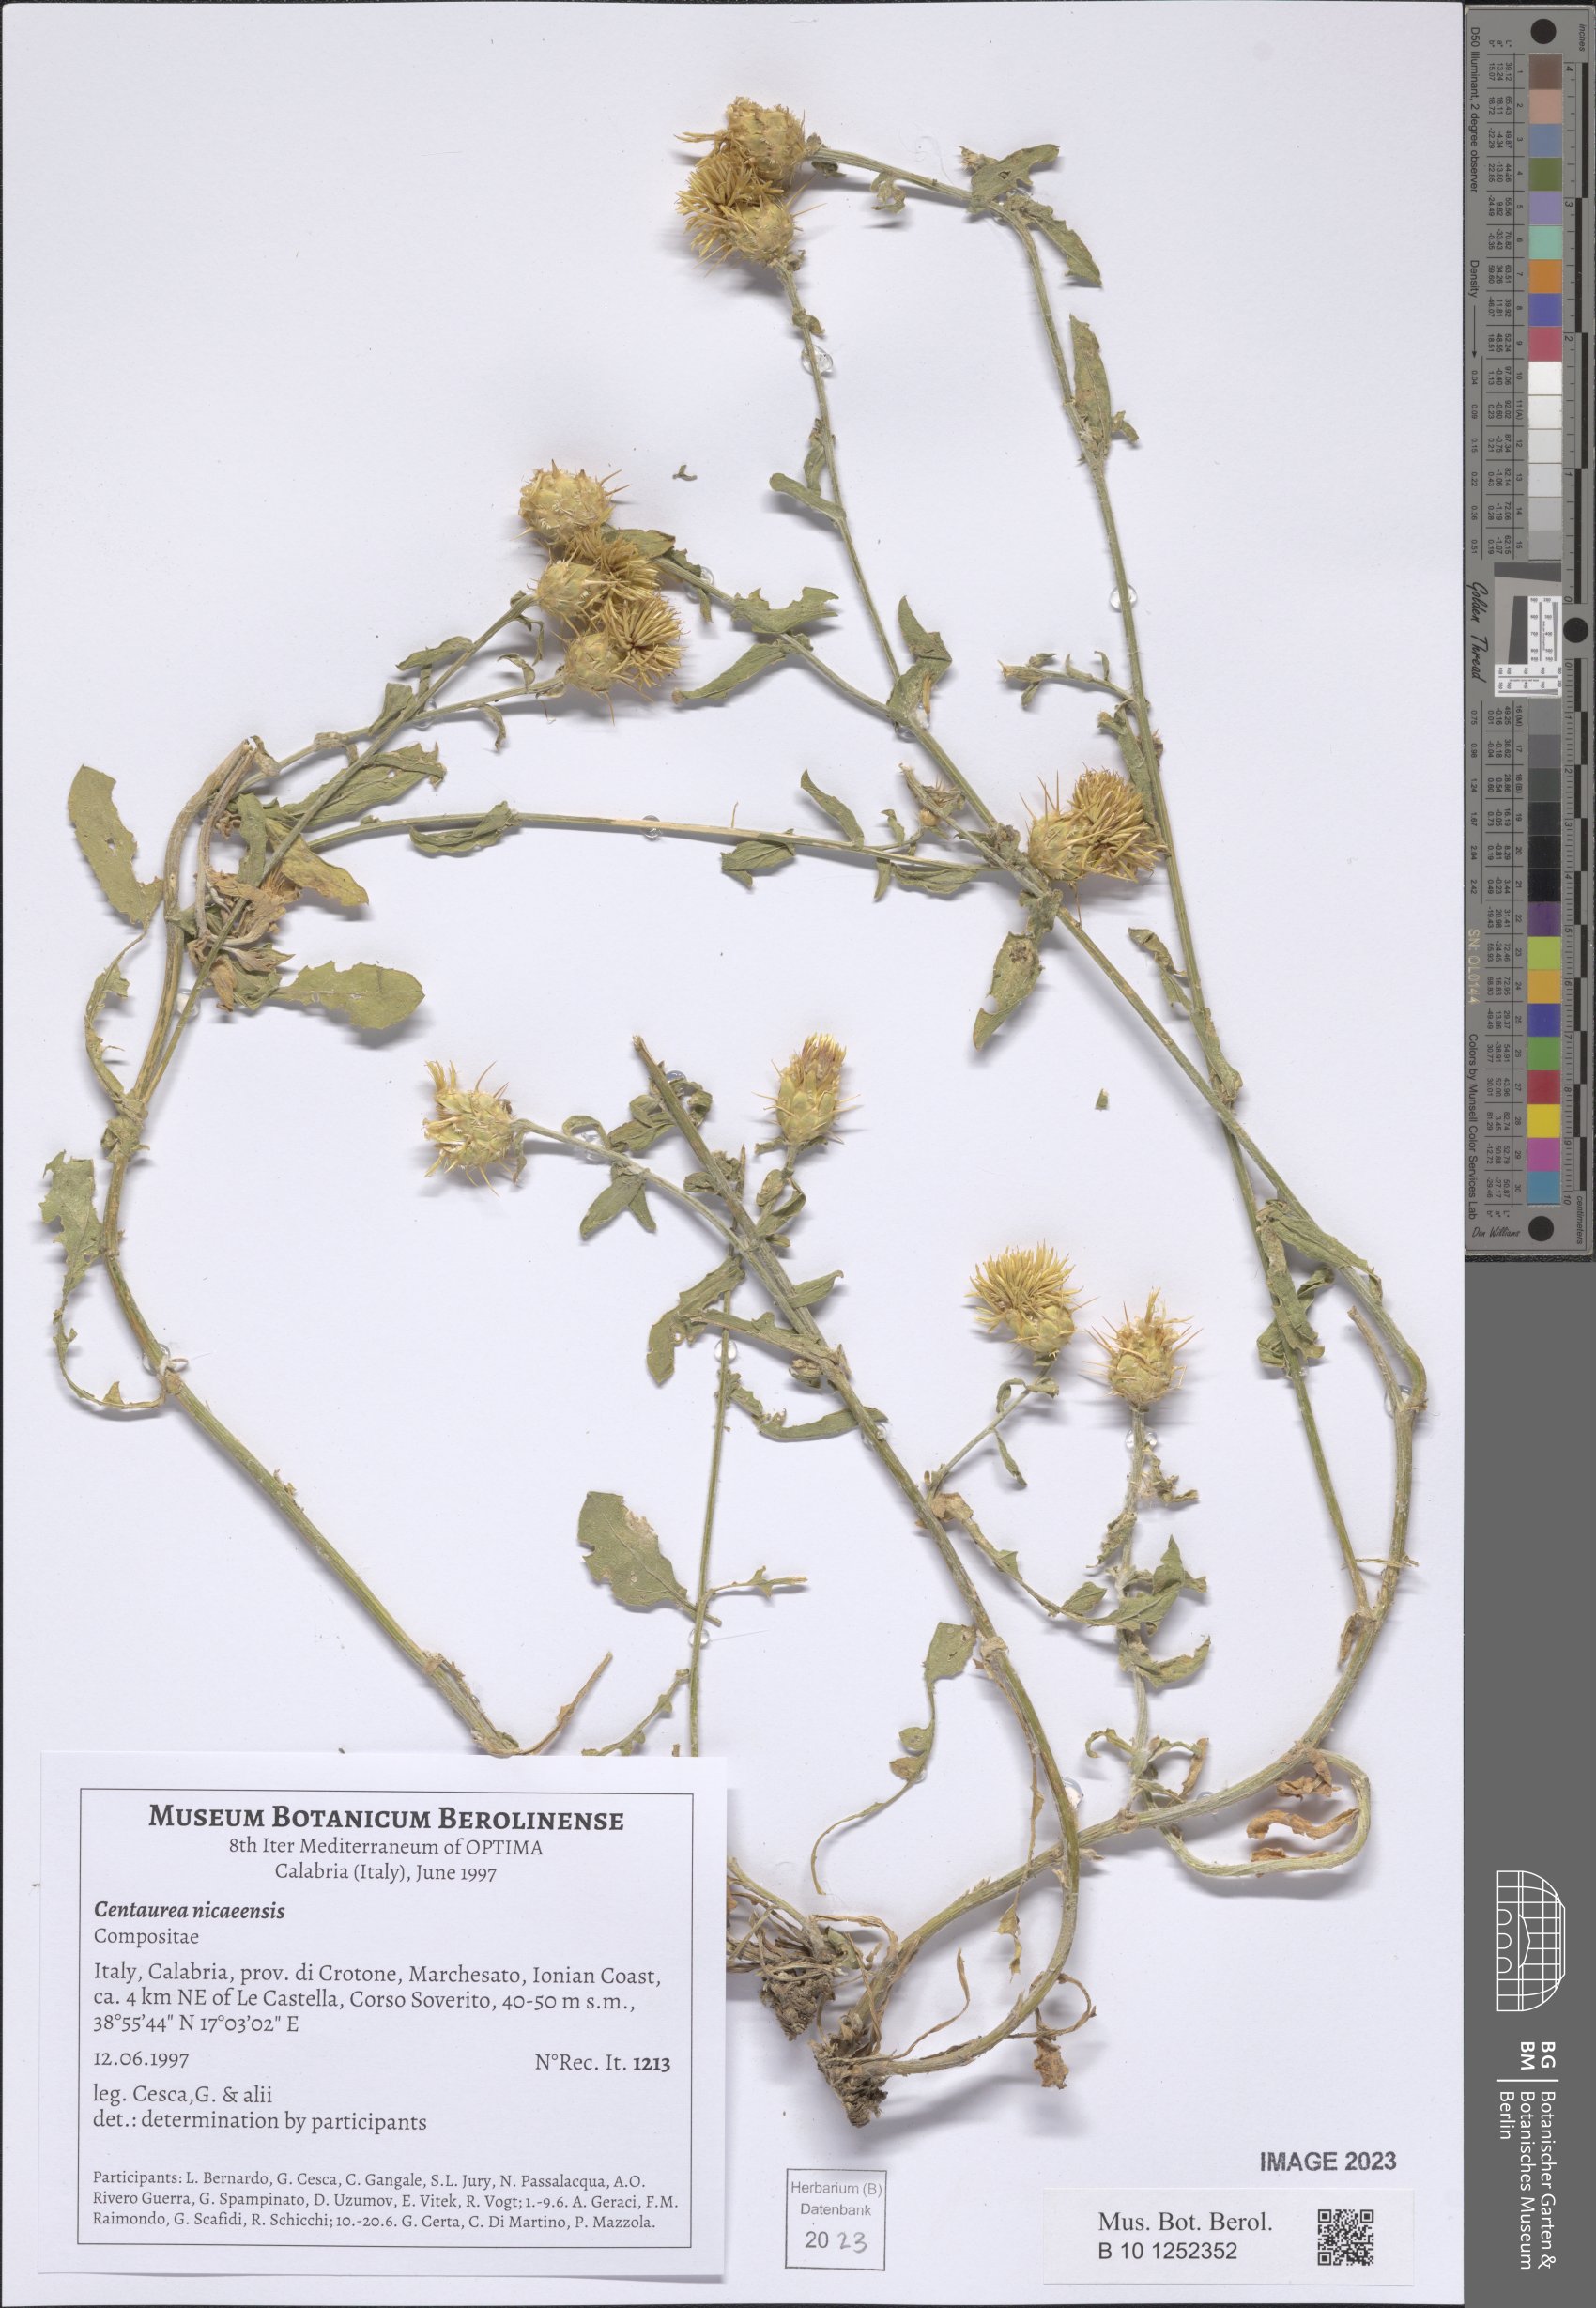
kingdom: Plantae
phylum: Tracheophyta
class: Magnoliopsida
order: Asterales
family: Asteraceae
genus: Centaurea
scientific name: Centaurea sicula
